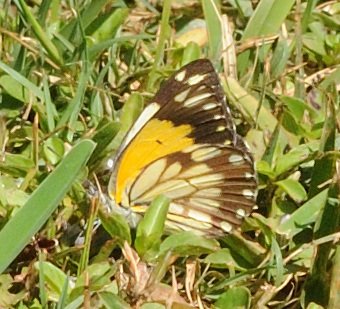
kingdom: Animalia
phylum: Arthropoda
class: Insecta
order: Lepidoptera
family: Pieridae
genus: Belenois
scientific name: Belenois creona
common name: African Caper
